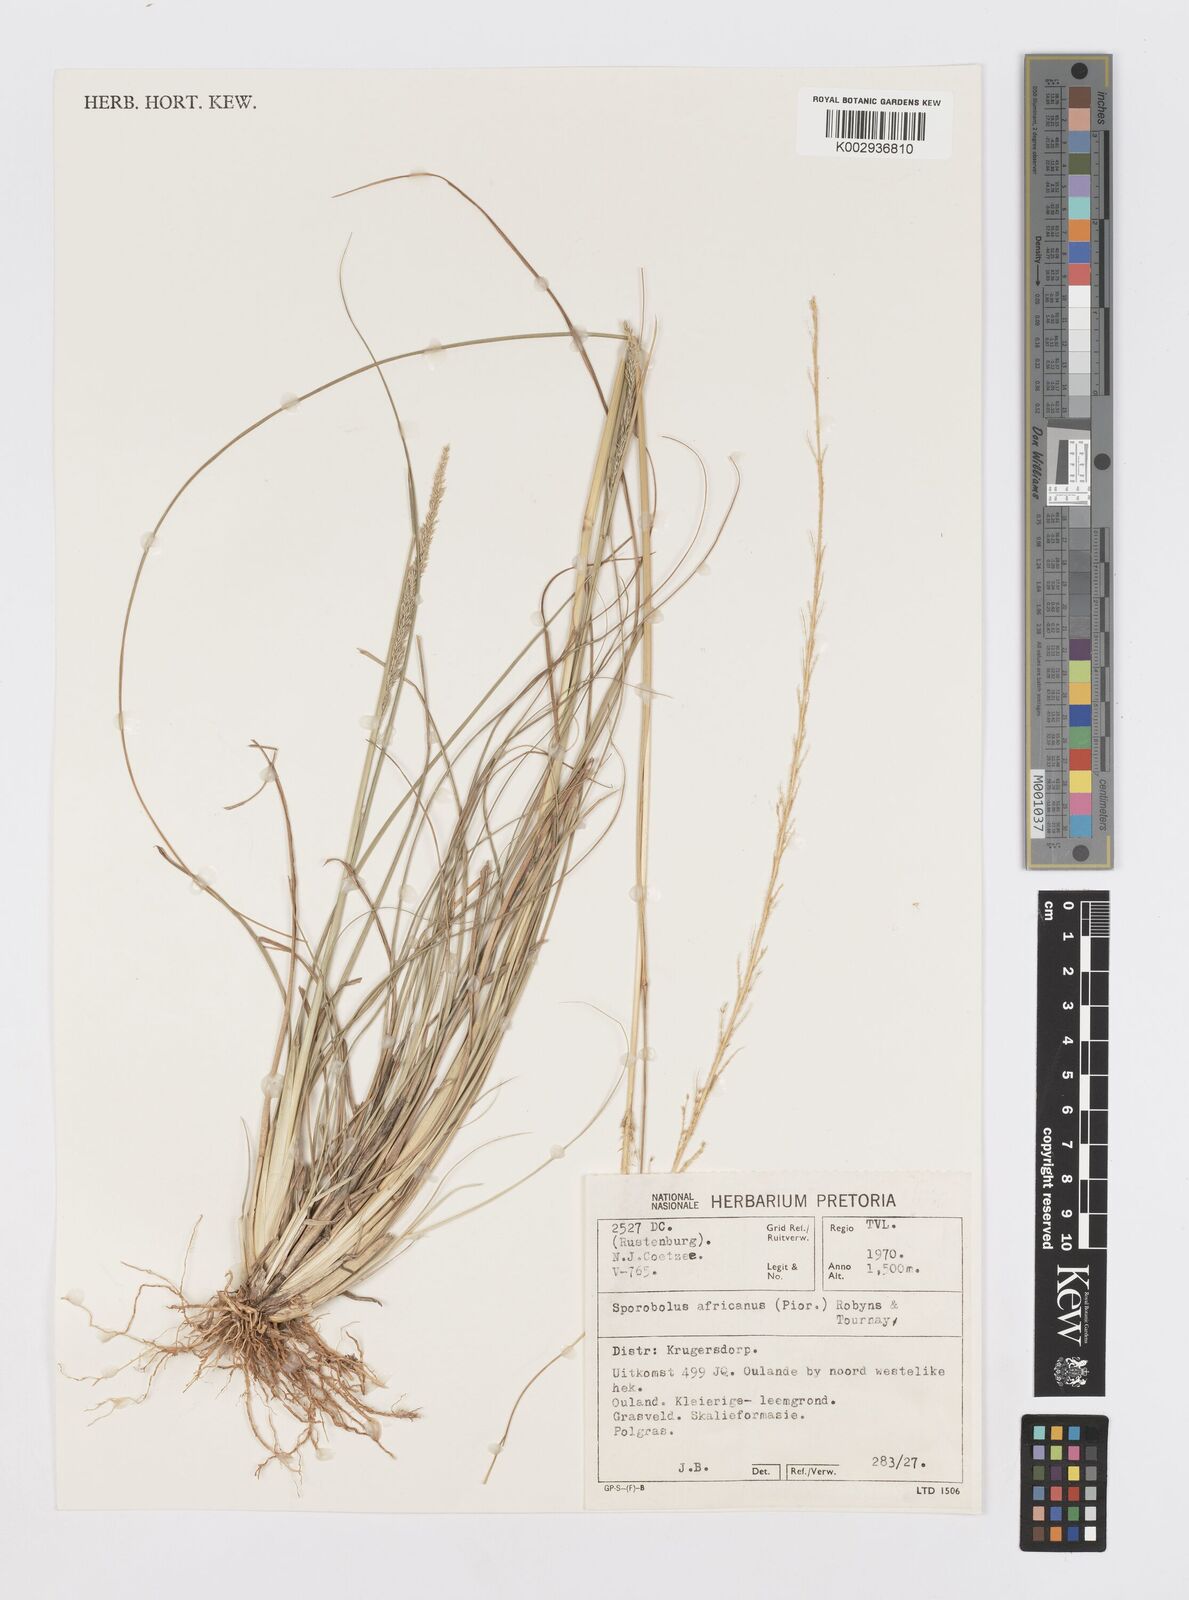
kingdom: Plantae
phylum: Tracheophyta
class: Liliopsida
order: Poales
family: Poaceae
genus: Sporobolus
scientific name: Sporobolus africanus
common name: African dropseed
